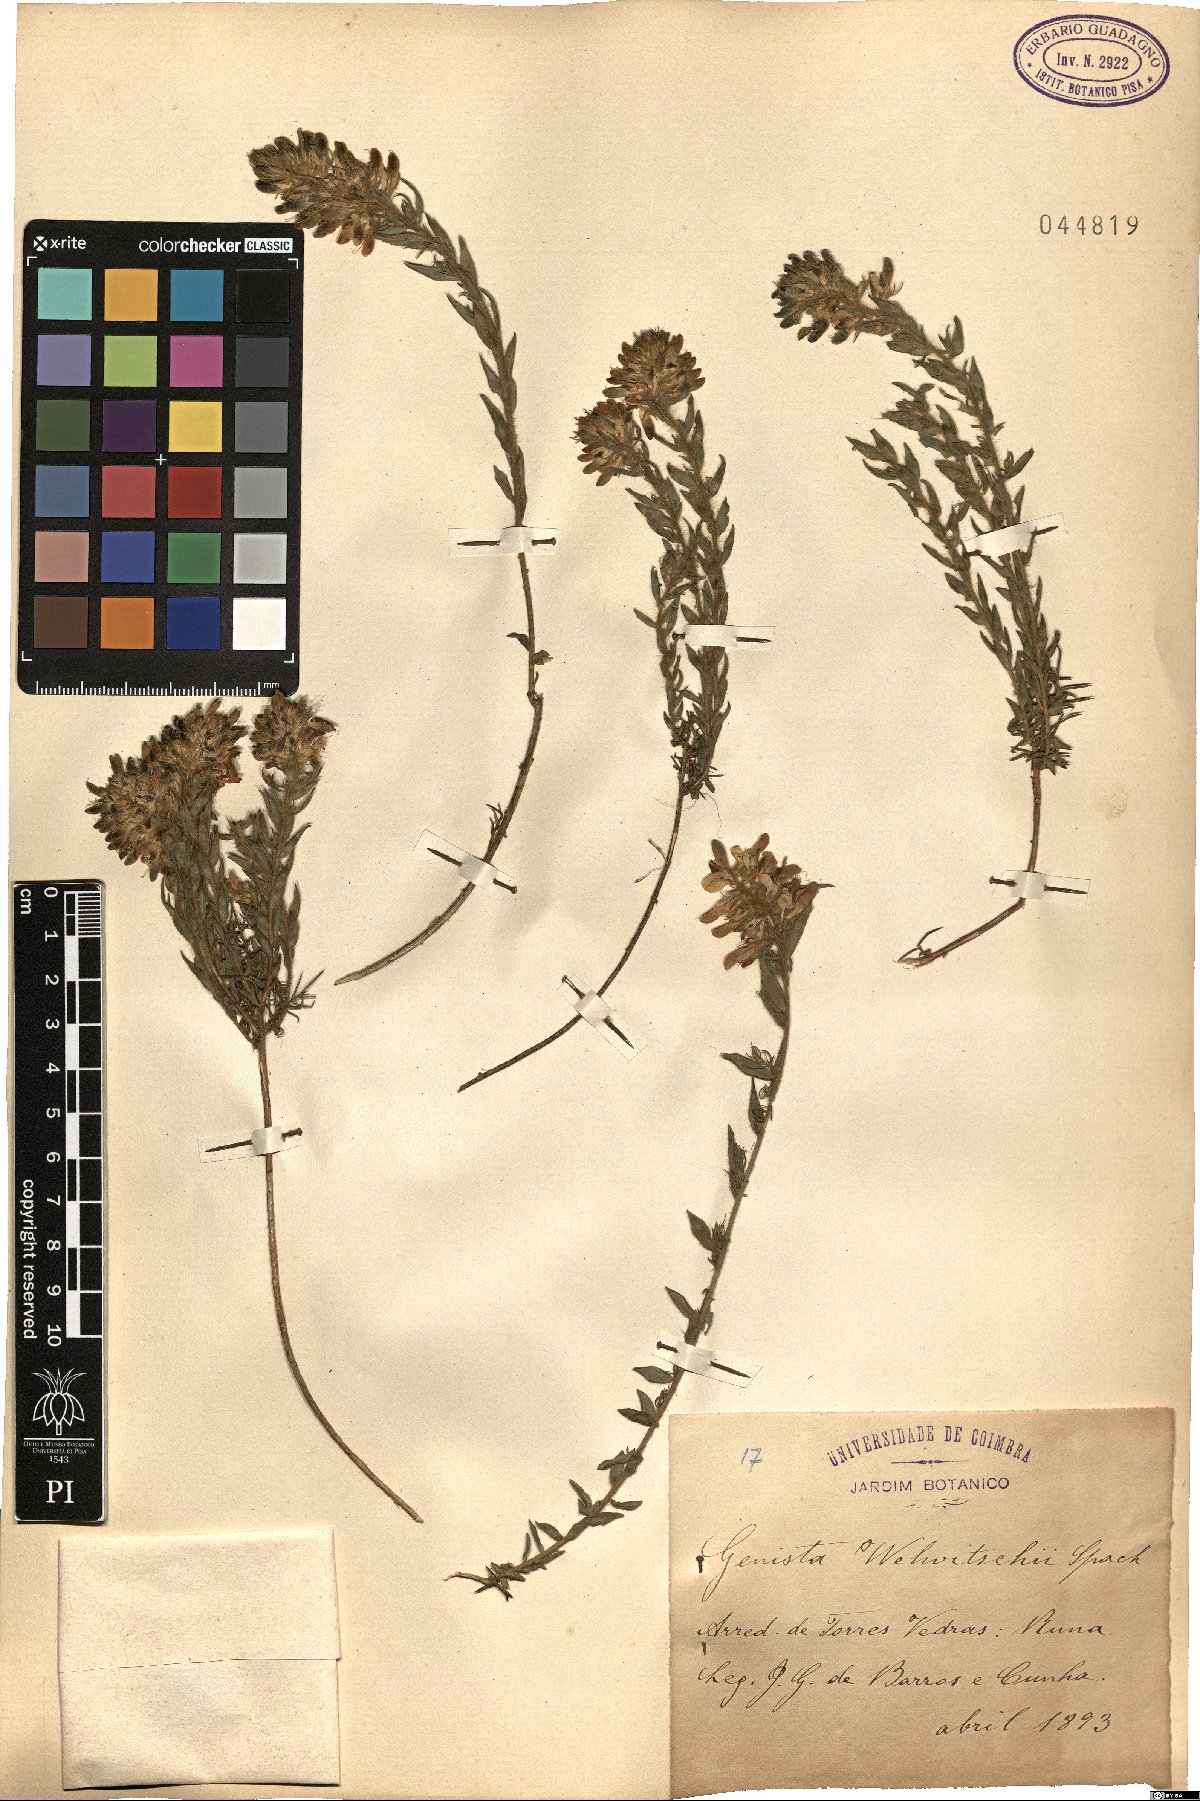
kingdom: Plantae
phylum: Tracheophyta
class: Magnoliopsida
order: Fabales
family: Fabaceae
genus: Genista
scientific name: Genista tournefortii
